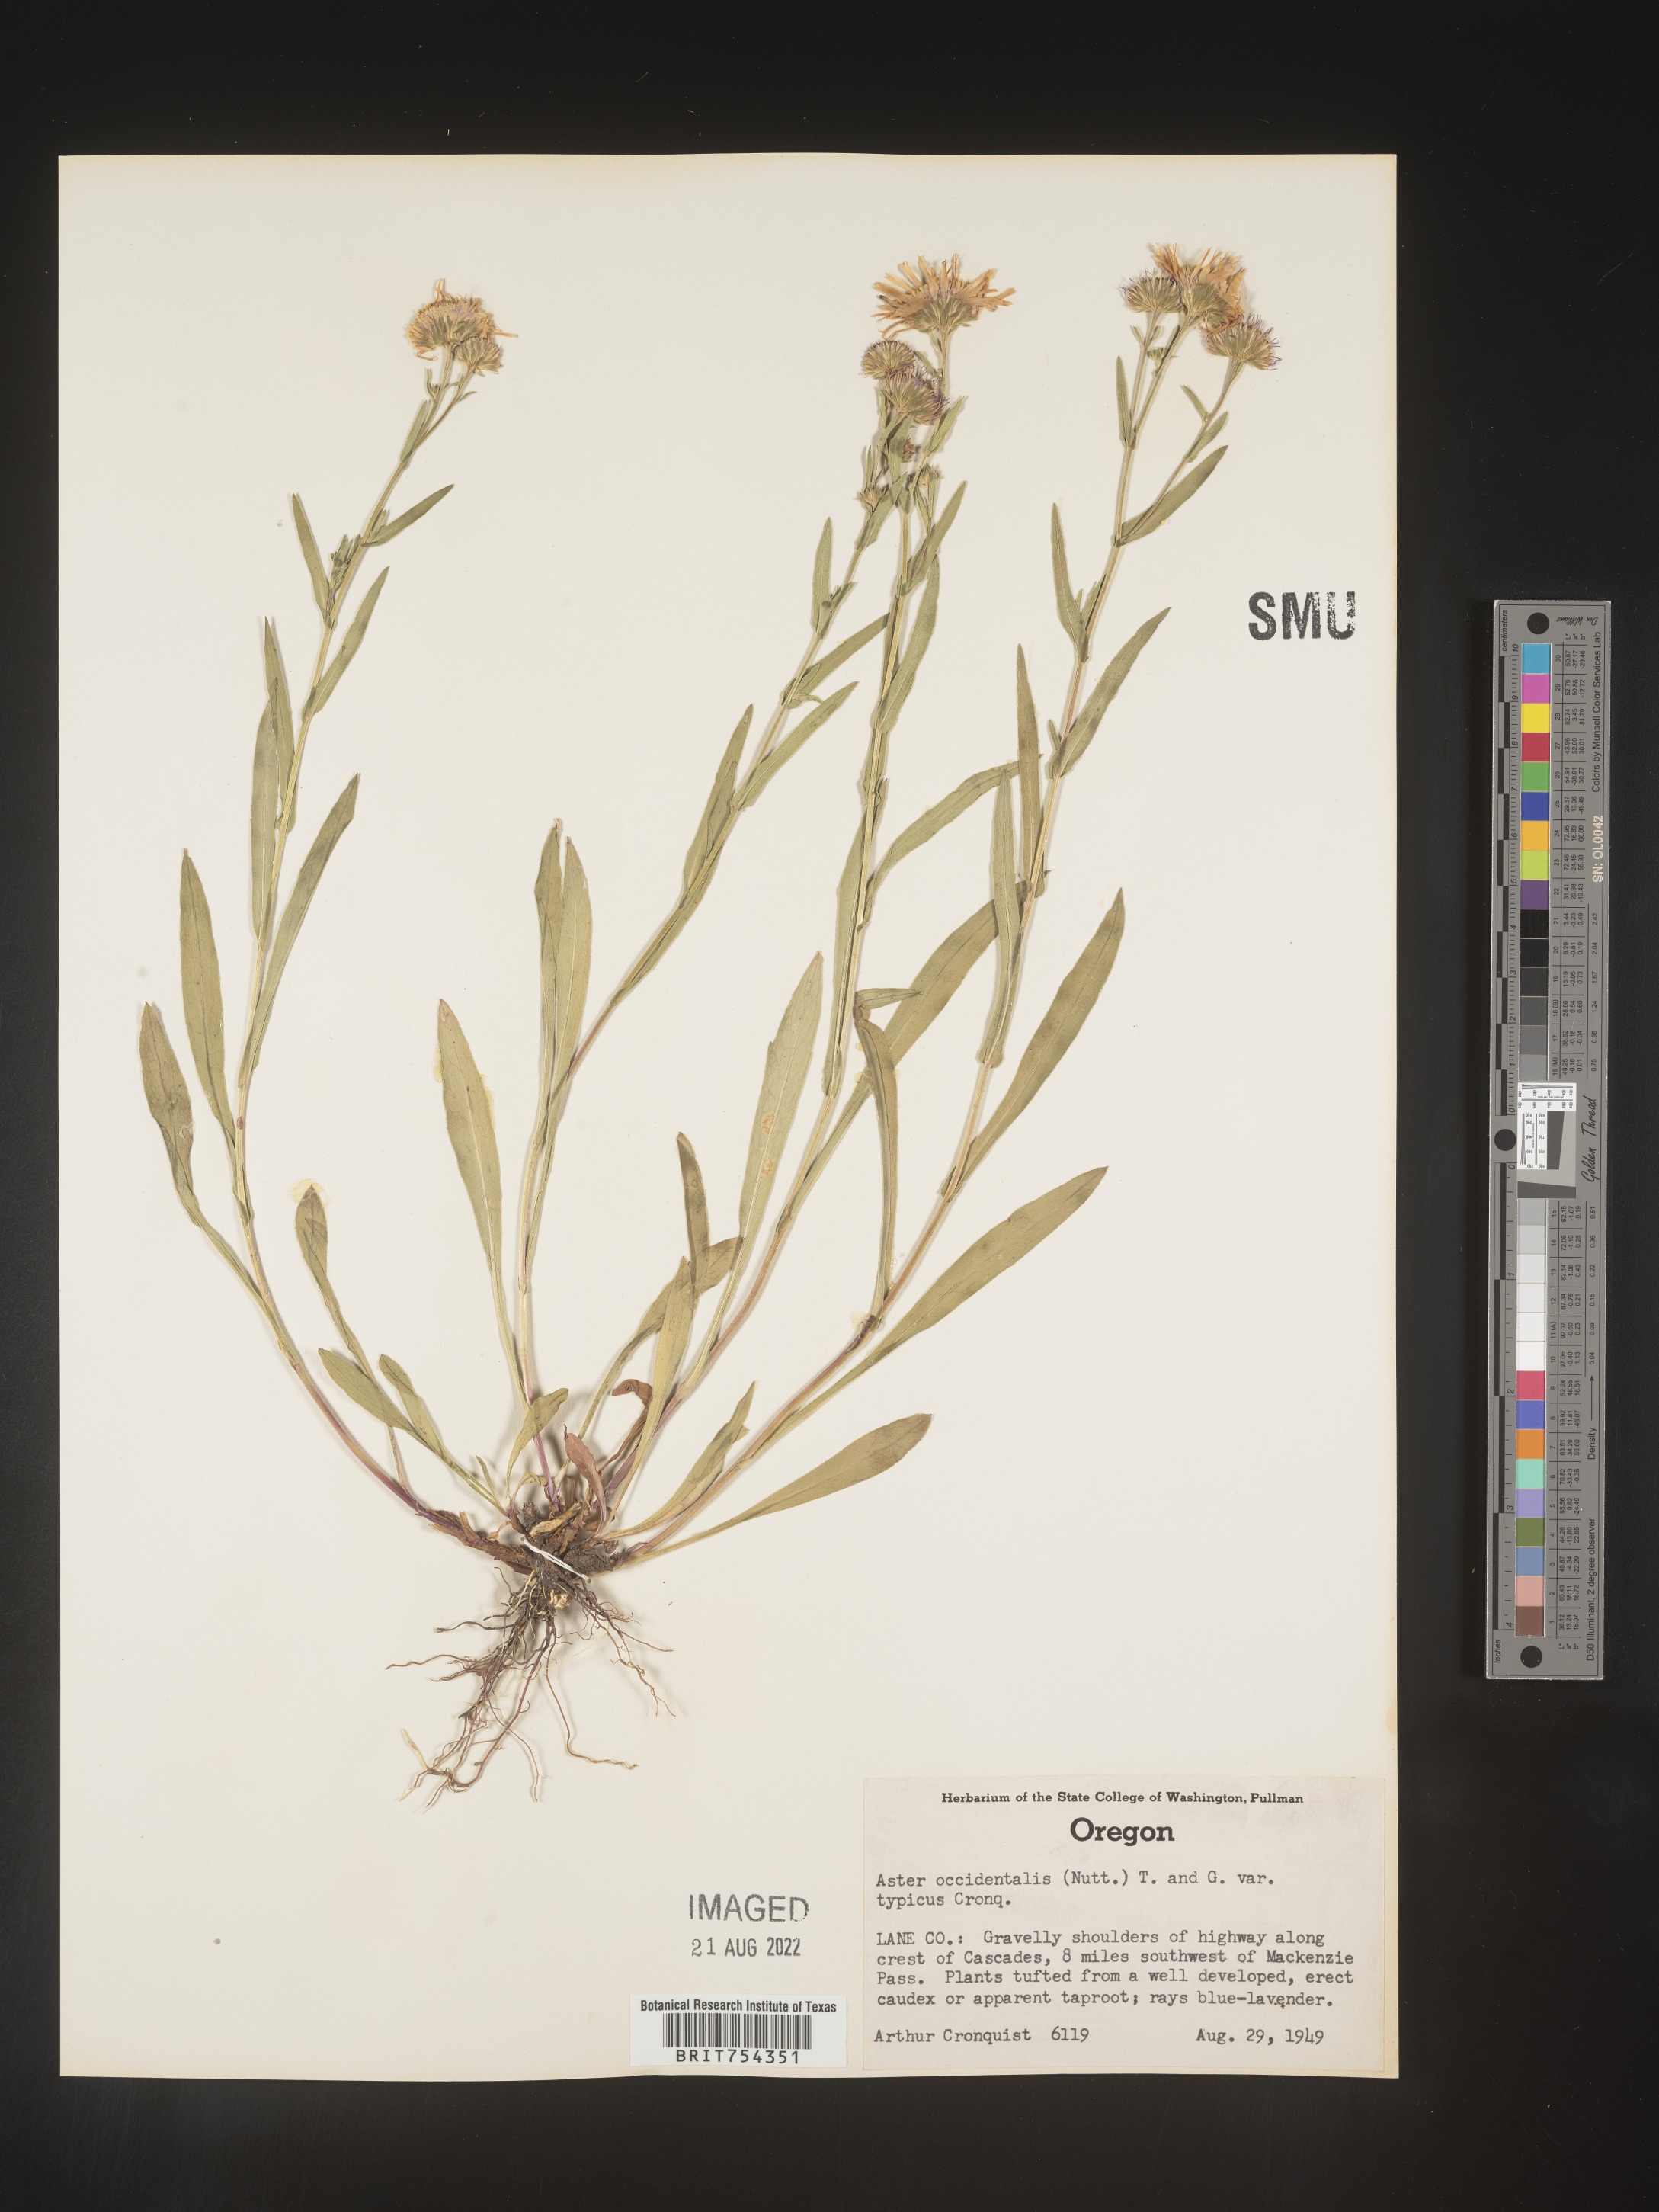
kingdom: Plantae
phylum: Tracheophyta
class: Magnoliopsida
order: Asterales
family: Asteraceae
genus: Symphyotrichum
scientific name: Symphyotrichum spathulatum
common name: Western mountain aster
